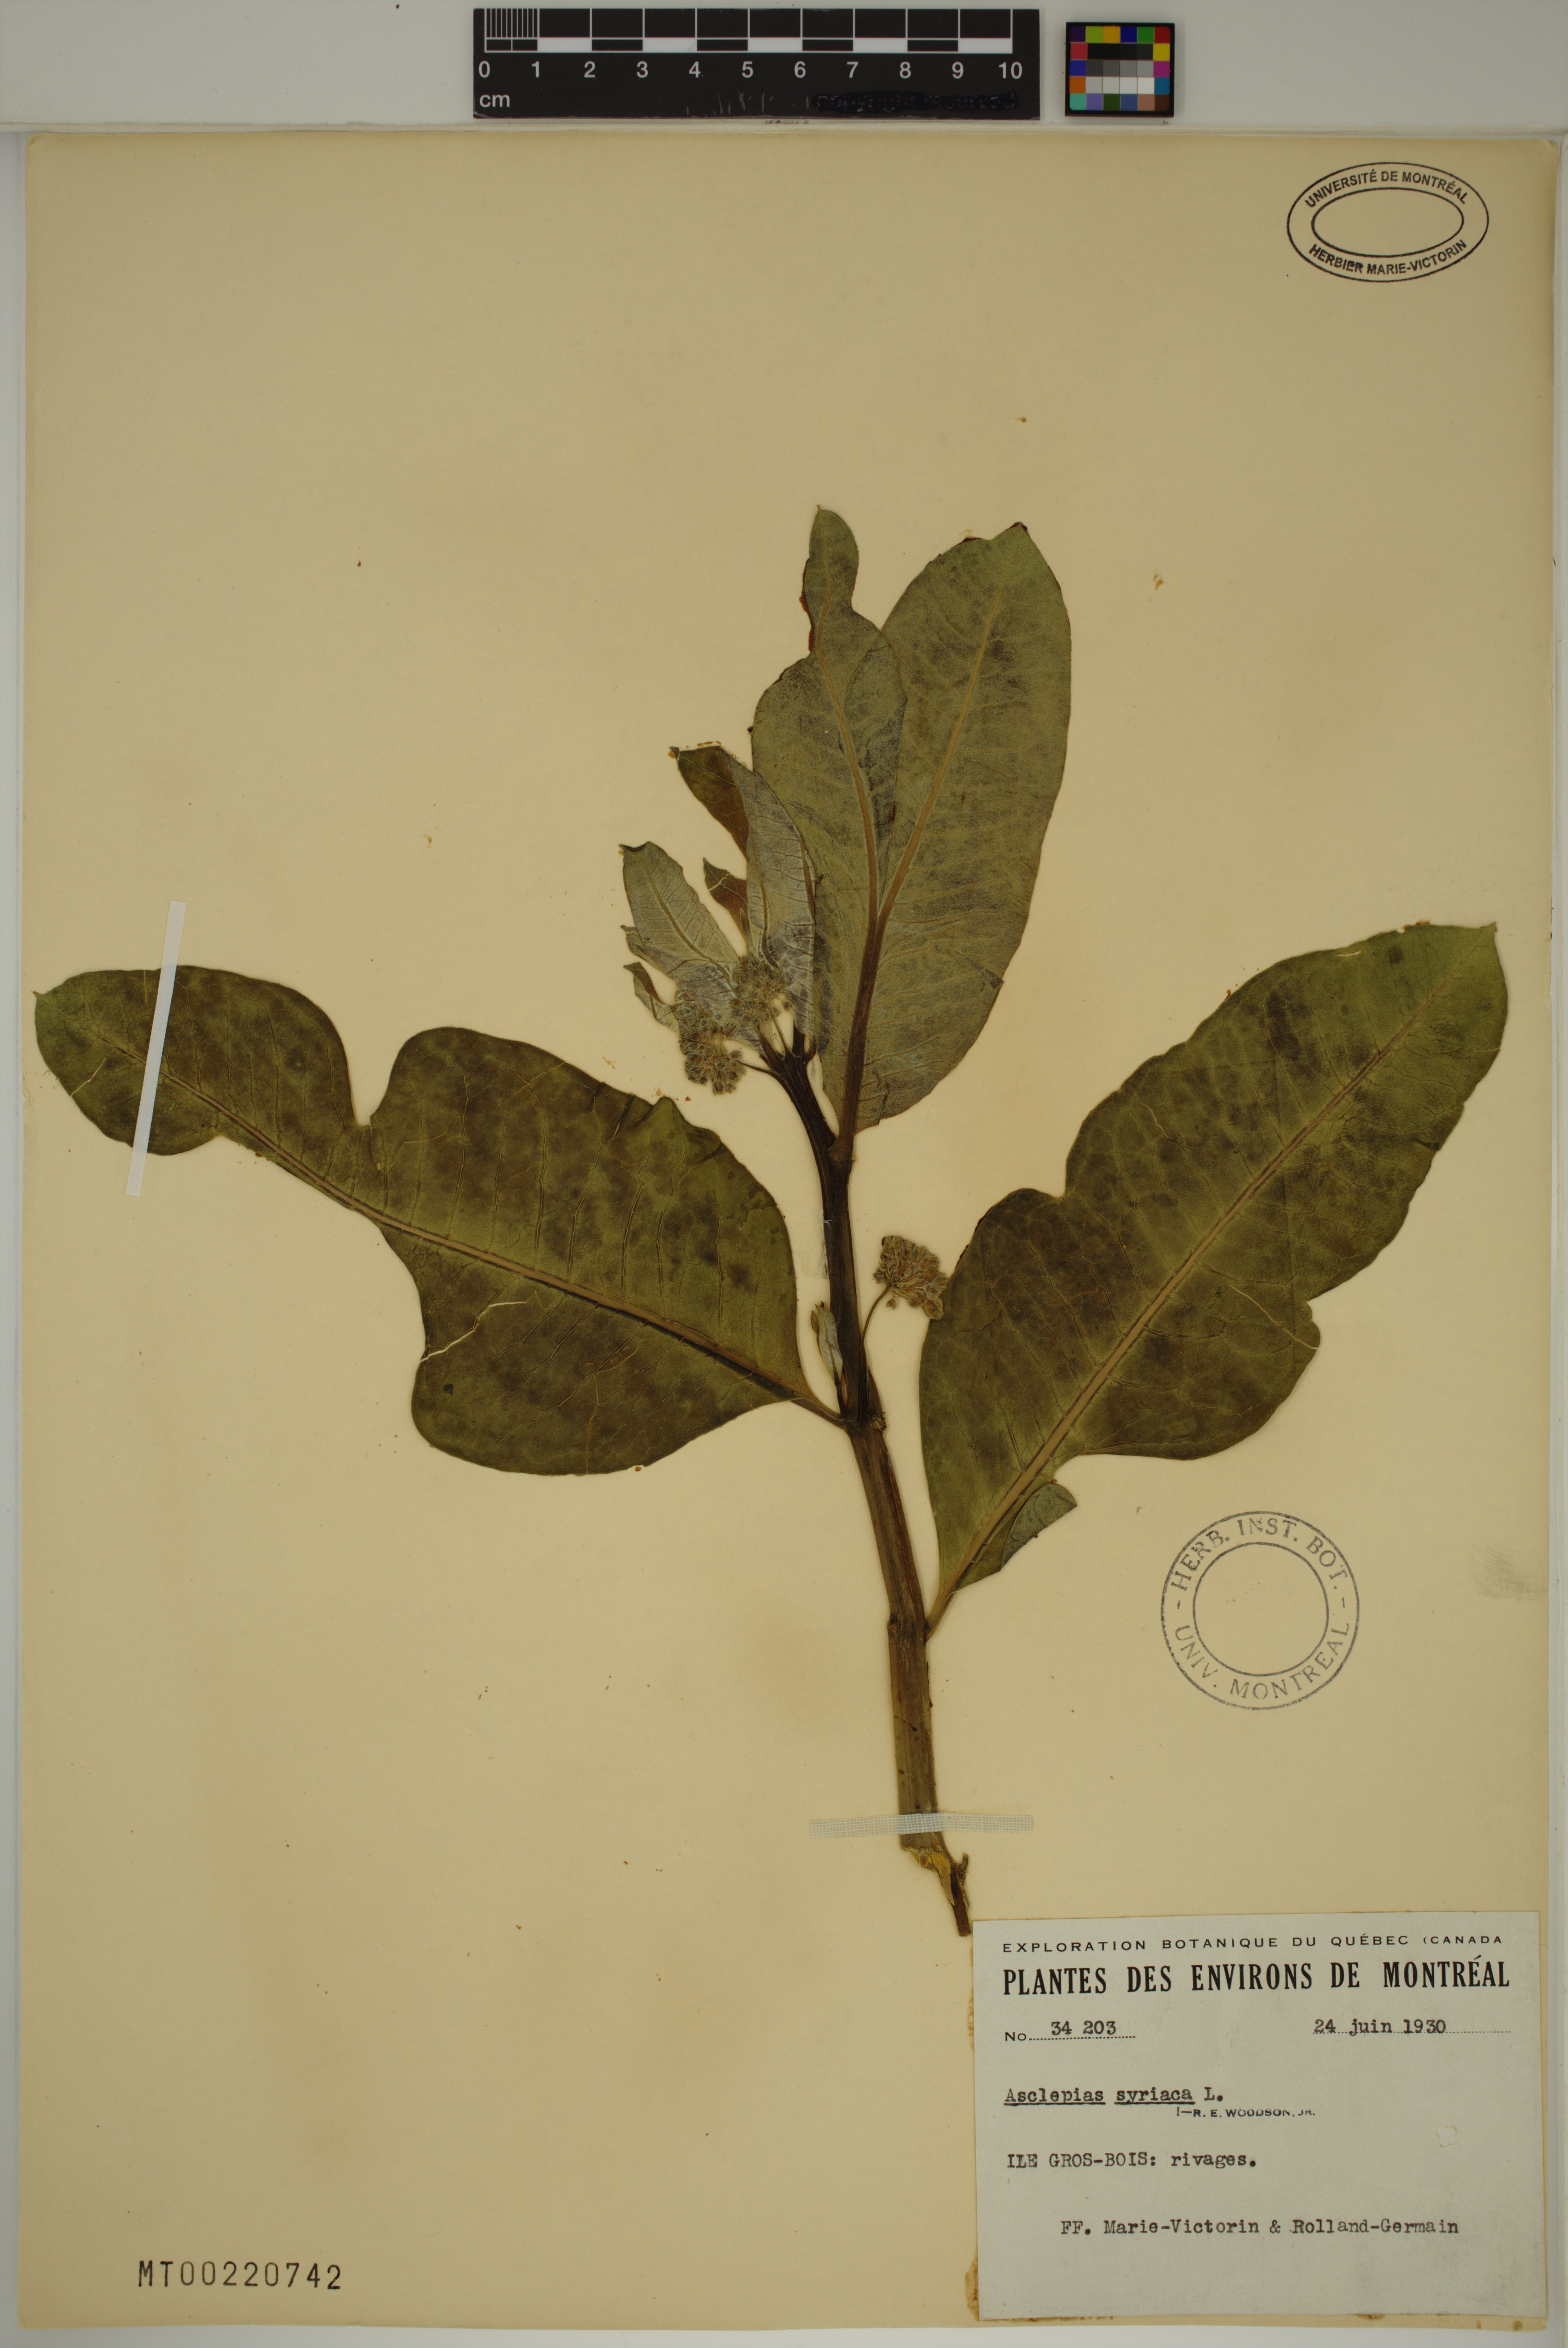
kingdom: Plantae
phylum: Tracheophyta
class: Magnoliopsida
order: Gentianales
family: Apocynaceae
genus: Asclepias
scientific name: Asclepias syriaca
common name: Common milkweed
